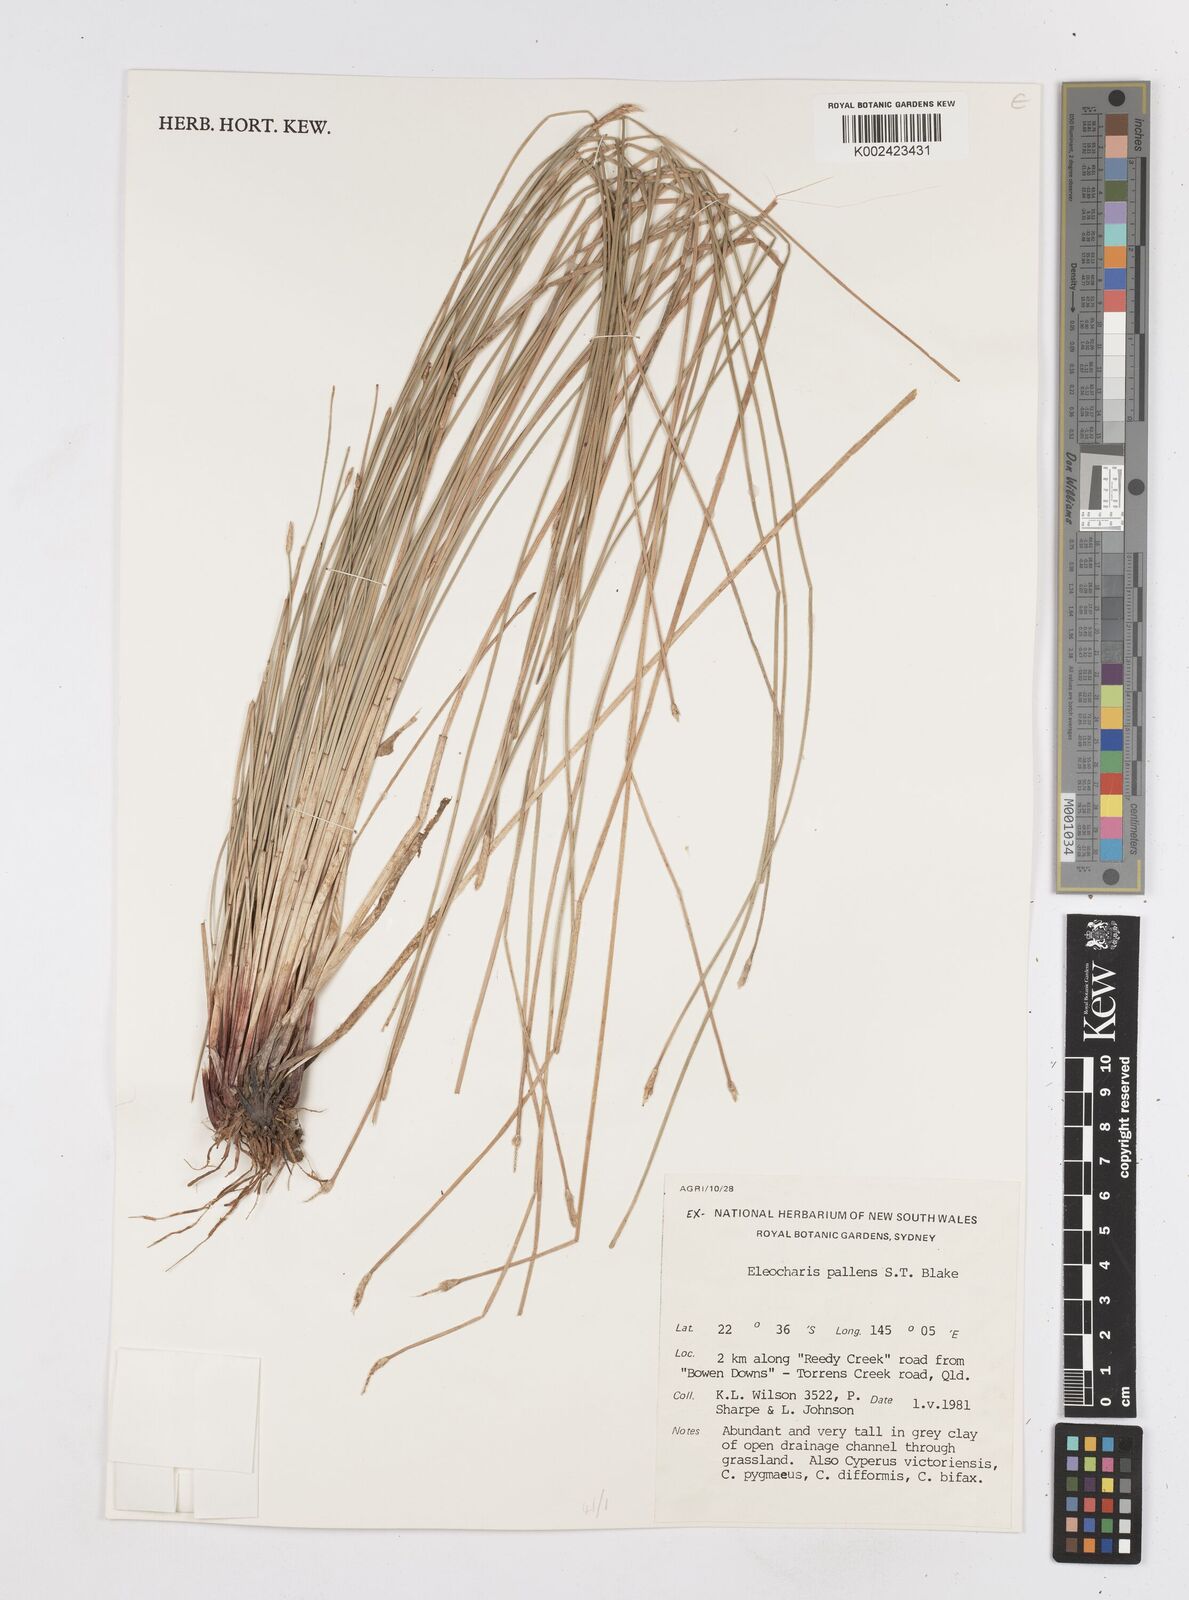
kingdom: Plantae
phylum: Tracheophyta
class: Liliopsida
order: Poales
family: Cyperaceae
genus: Eleocharis
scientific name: Eleocharis acuta
